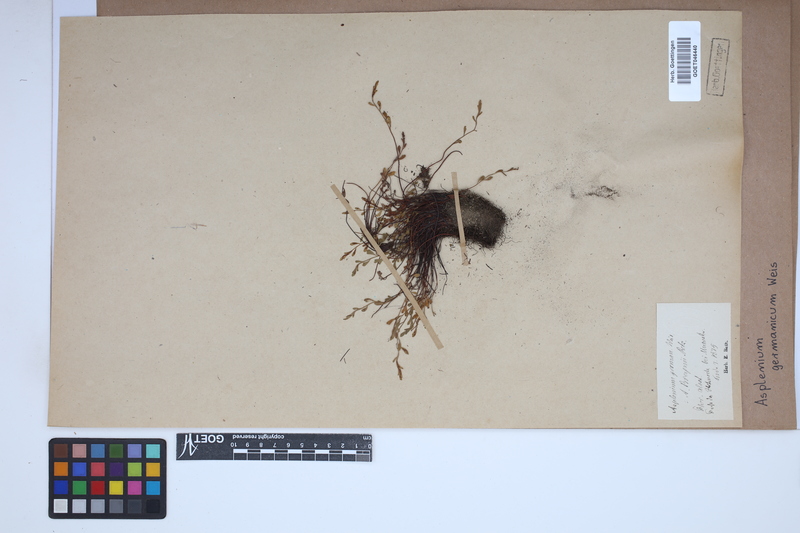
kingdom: Plantae
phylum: Tracheophyta
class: Polypodiopsida
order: Polypodiales
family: Aspleniaceae
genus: Asplenium
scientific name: Asplenium
